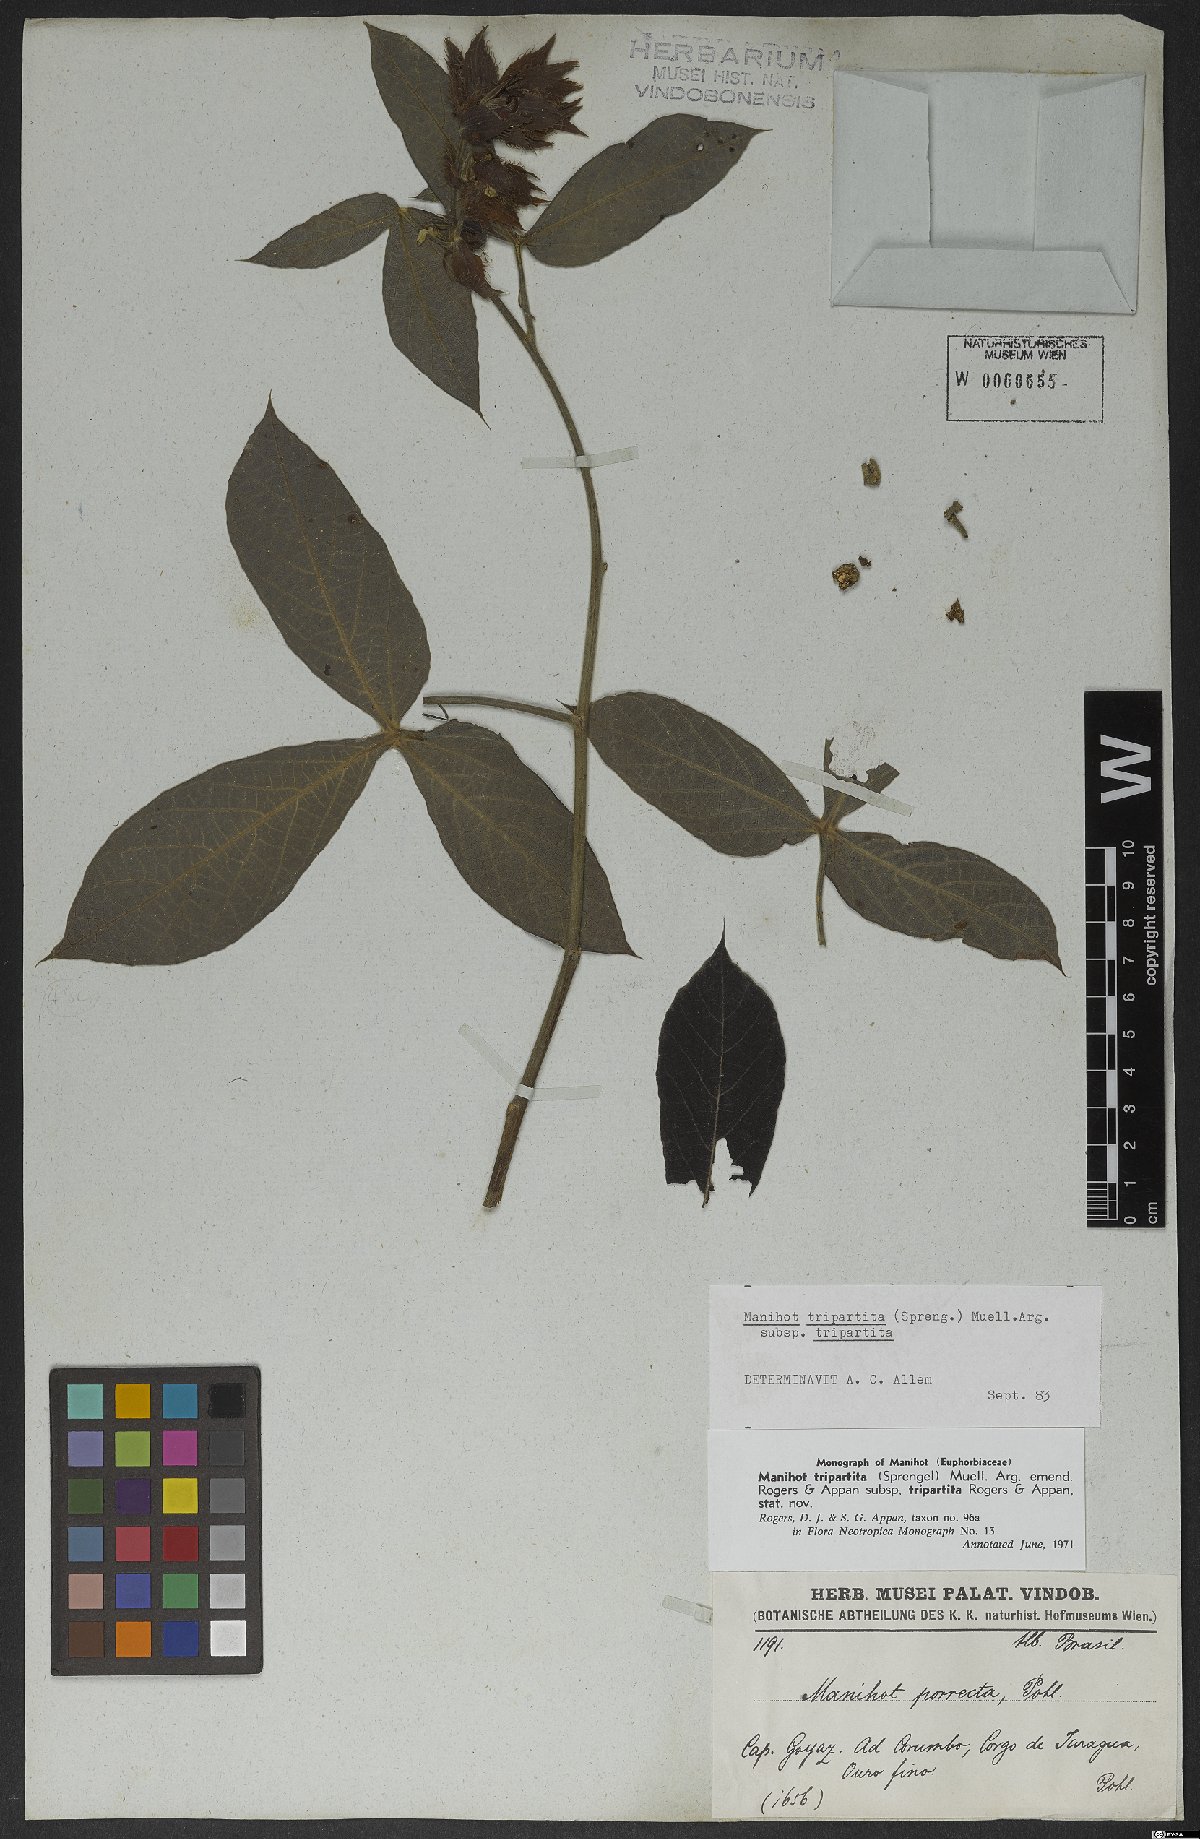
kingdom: Plantae
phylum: Tracheophyta
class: Magnoliopsida
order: Malpighiales
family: Euphorbiaceae
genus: Manihot
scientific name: Manihot tripartita
